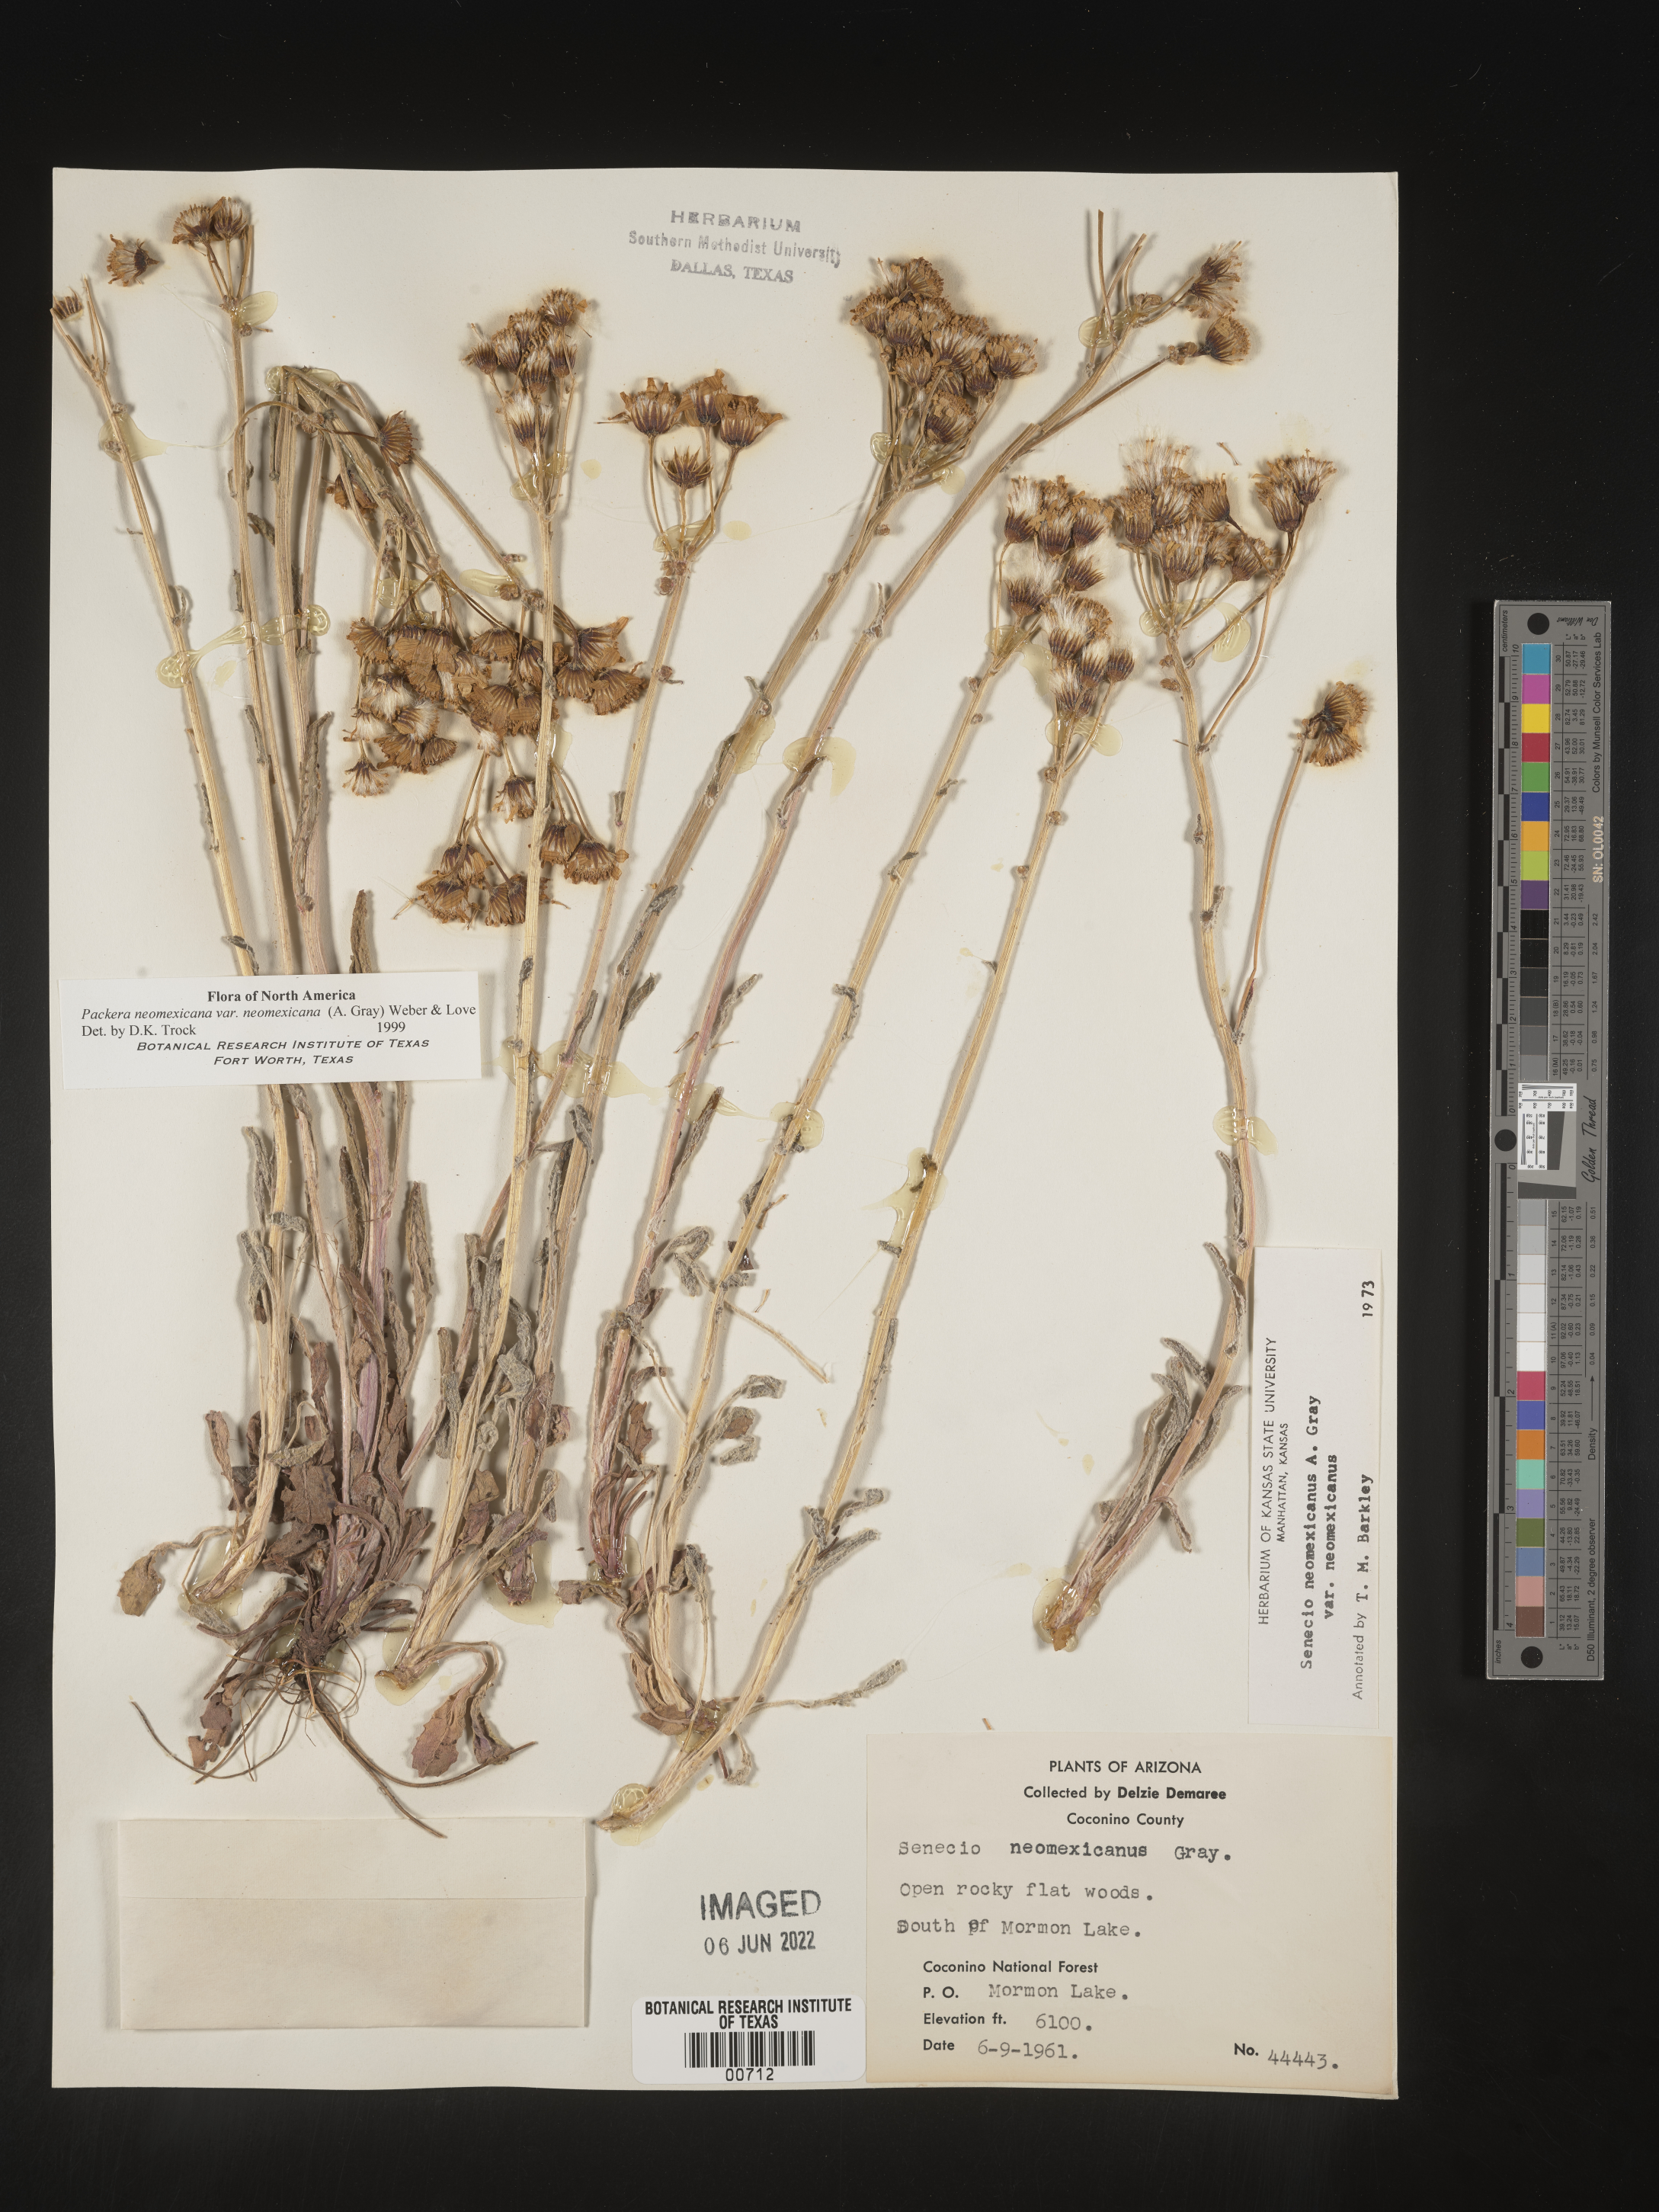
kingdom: Plantae
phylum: Tracheophyta
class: Magnoliopsida
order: Asterales
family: Asteraceae
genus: Packera
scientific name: Packera neomexicana
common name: New mexico butterweed
